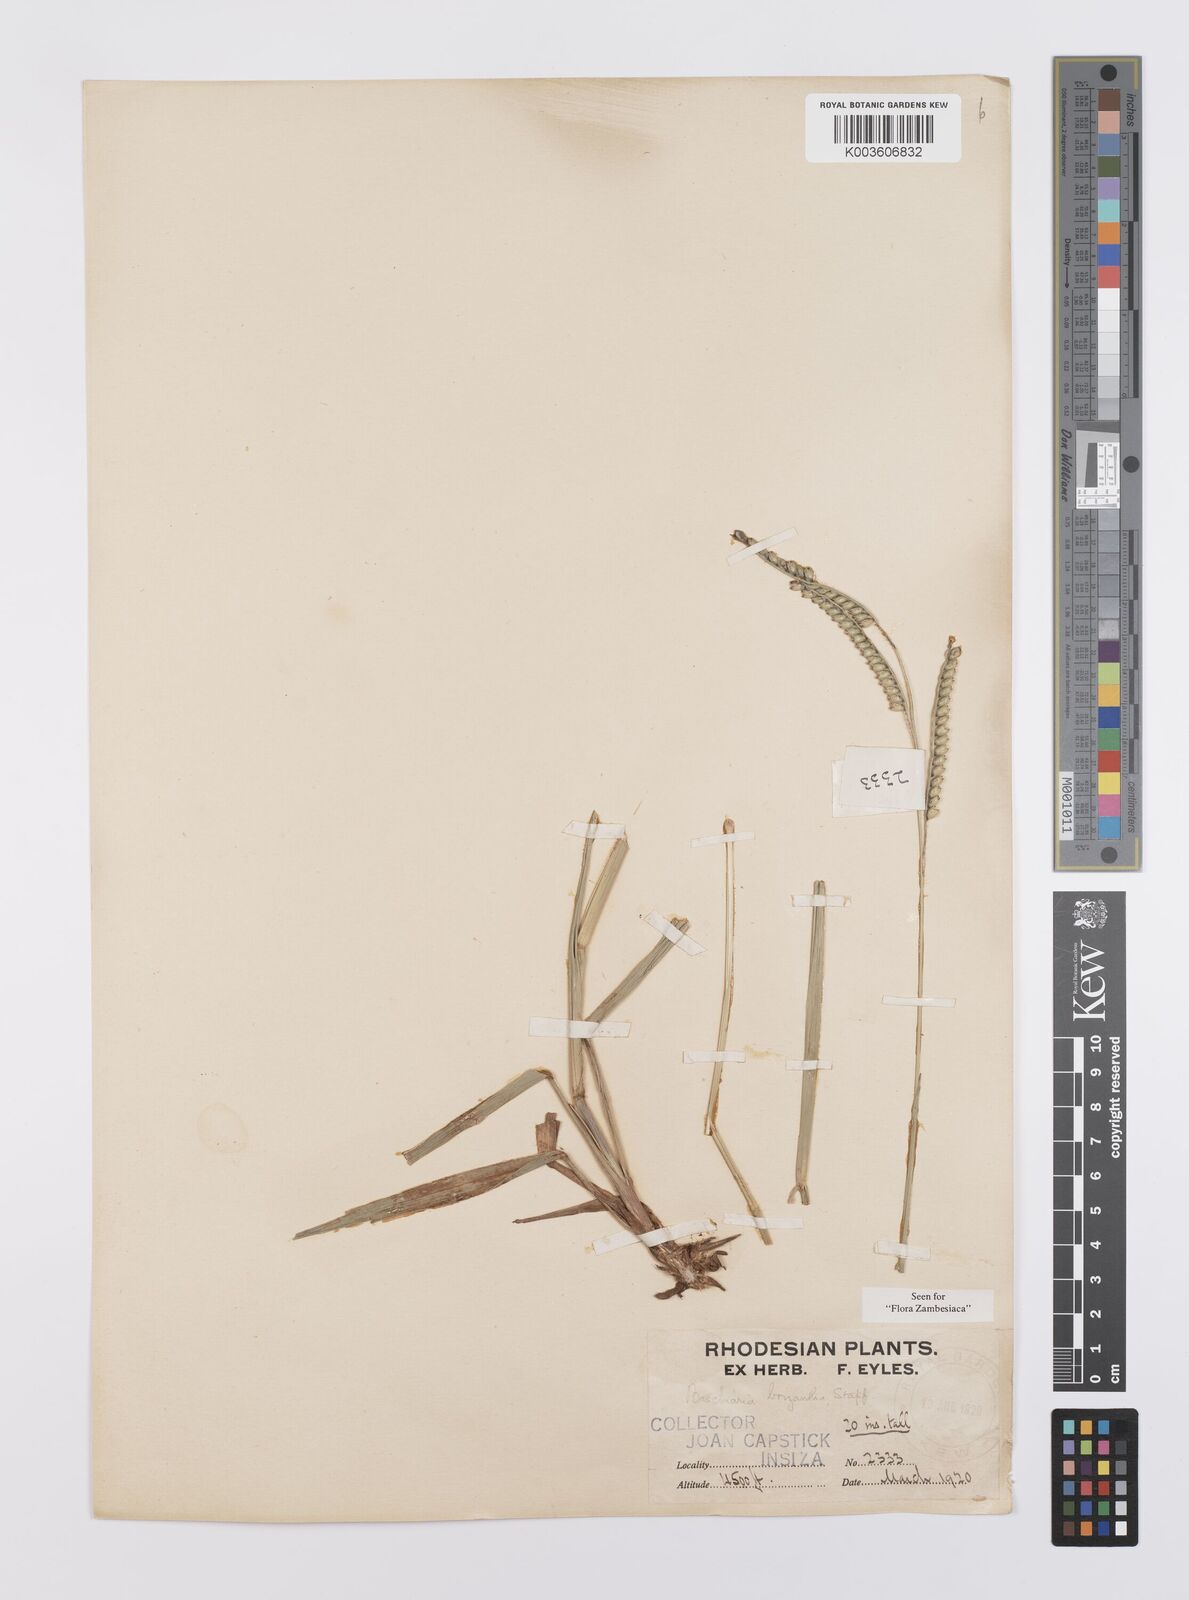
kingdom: Plantae
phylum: Tracheophyta
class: Liliopsida
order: Poales
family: Poaceae
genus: Urochloa
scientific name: Urochloa brizantha
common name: Palisade signalgrass
